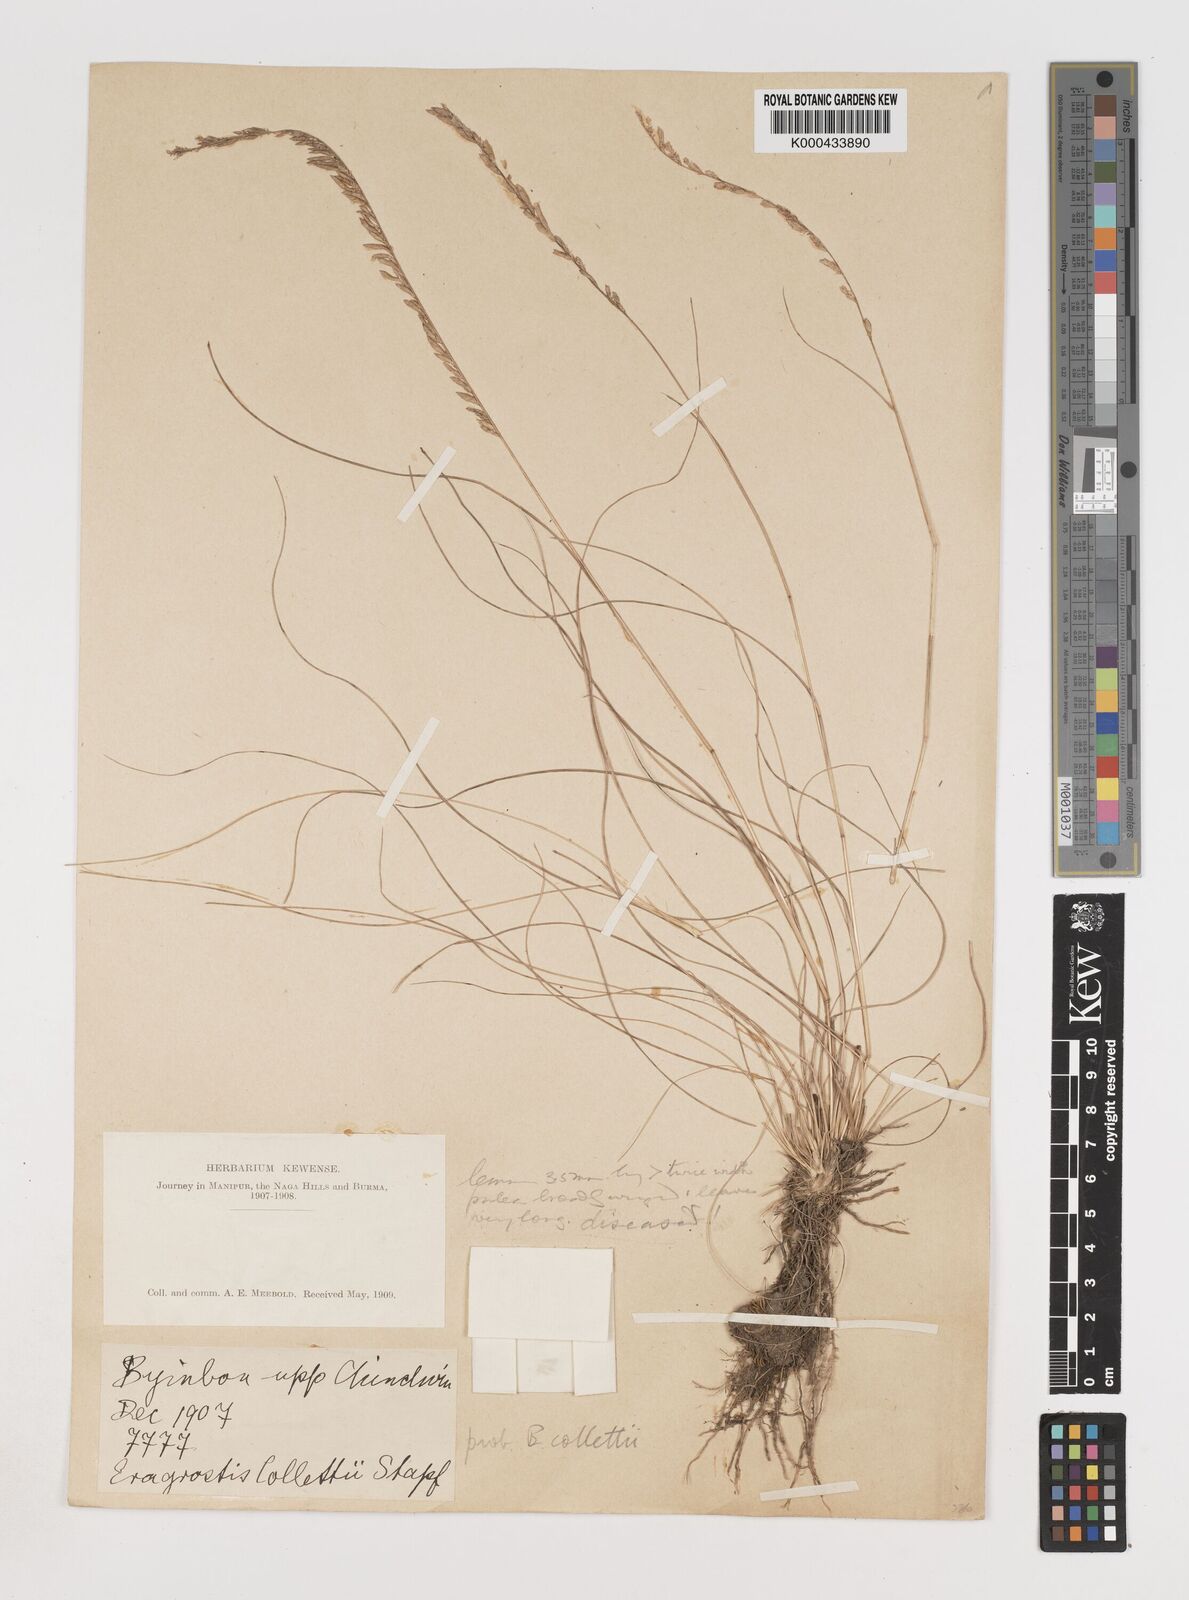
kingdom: Plantae
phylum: Tracheophyta
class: Liliopsida
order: Poales
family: Poaceae
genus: Eragrostiella
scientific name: Eragrostiella collettii
